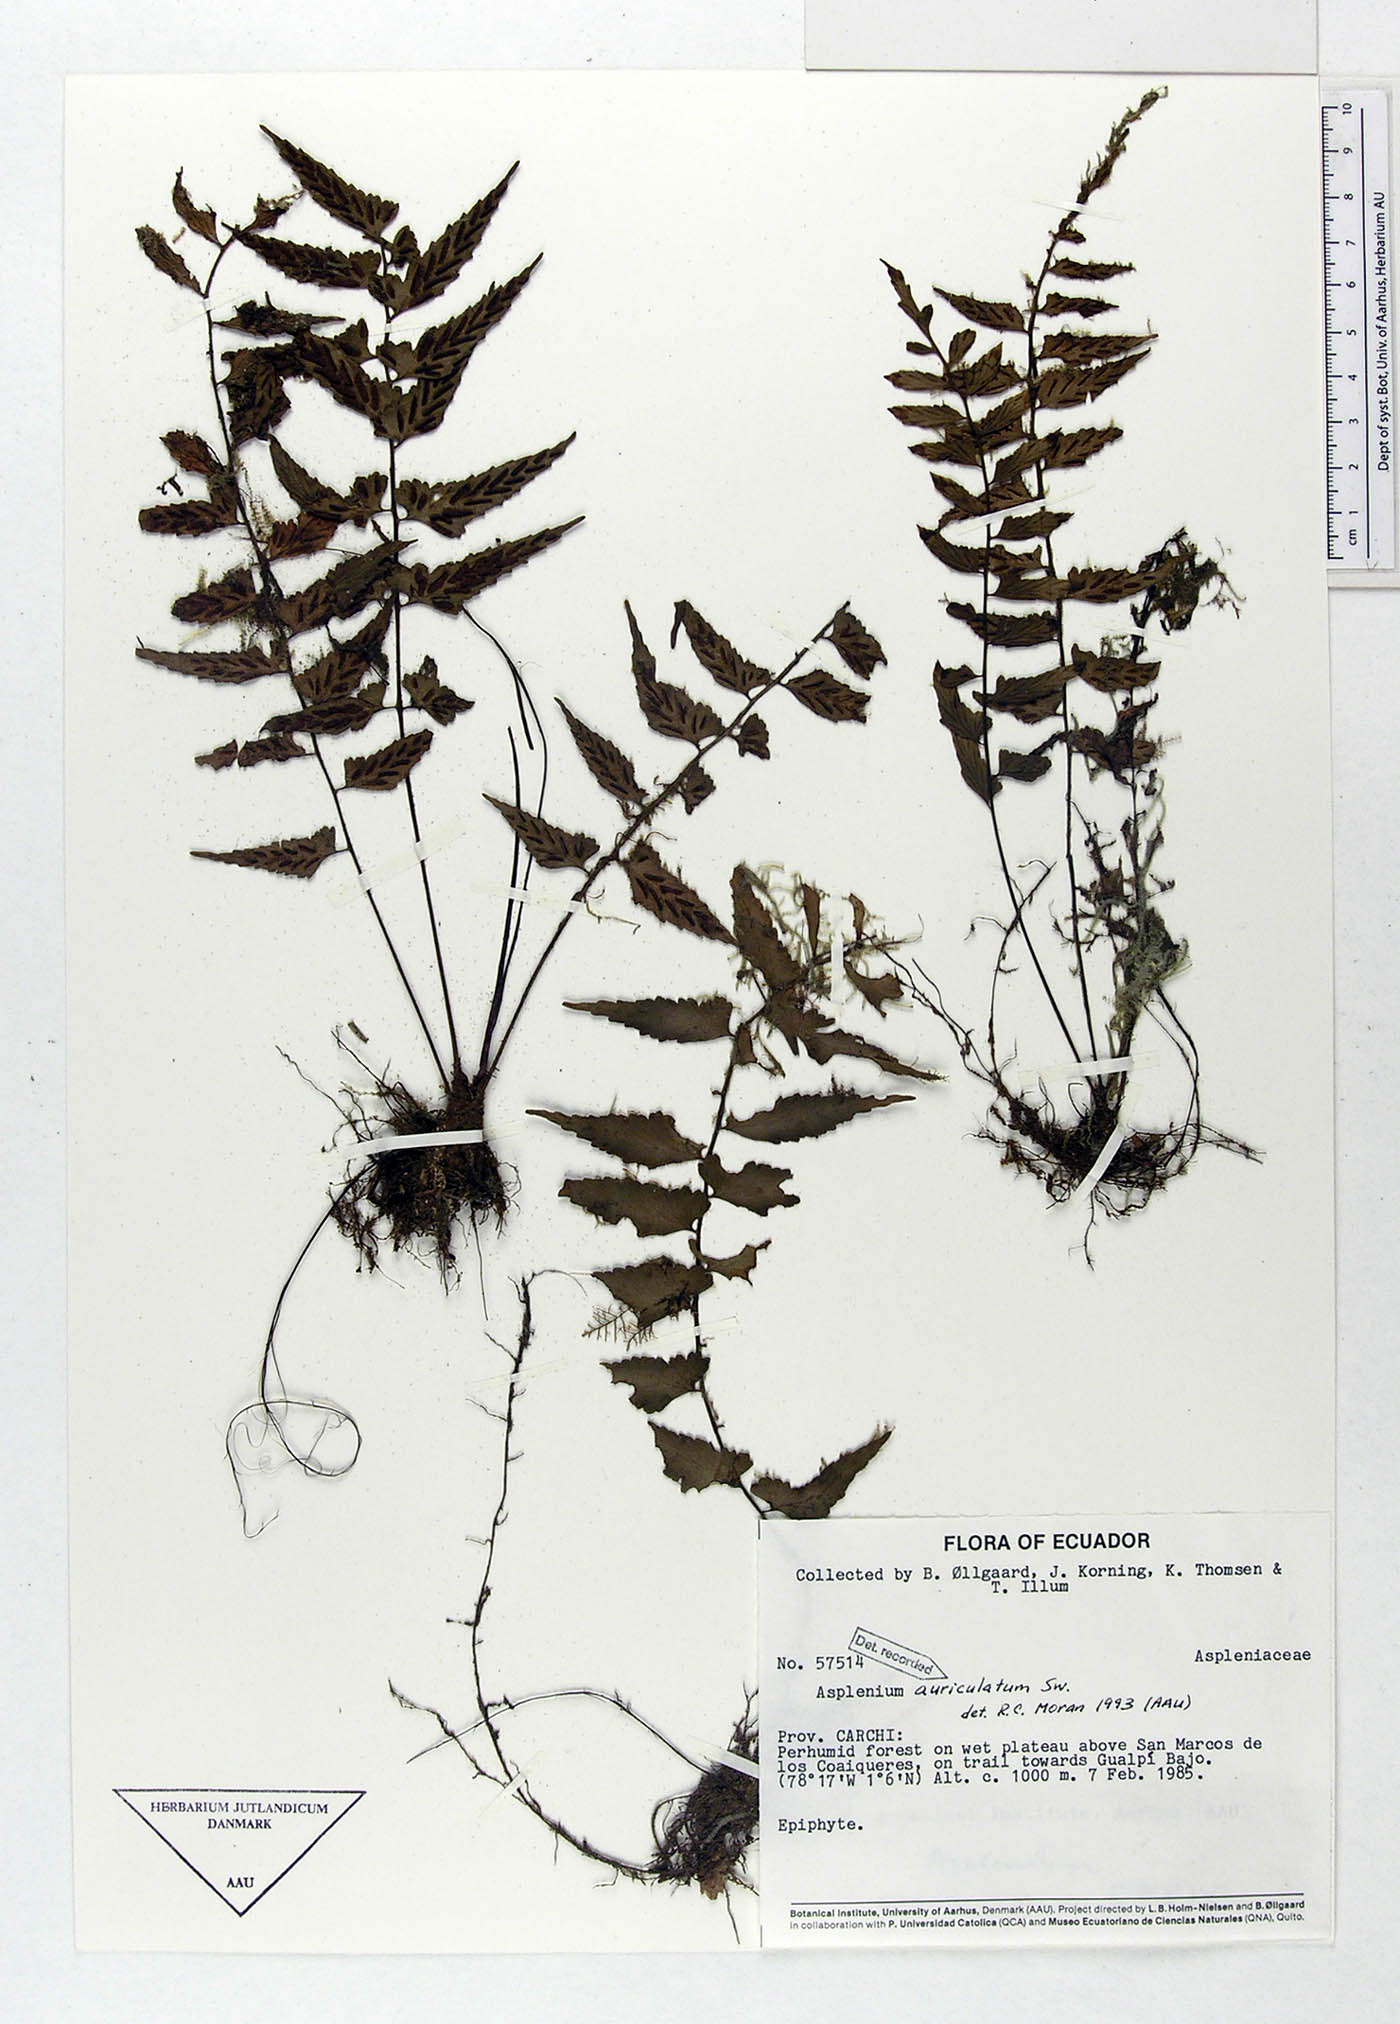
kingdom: Plantae
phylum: Tracheophyta
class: Polypodiopsida
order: Polypodiales
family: Aspleniaceae
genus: Asplenium
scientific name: Asplenium auriculatum
